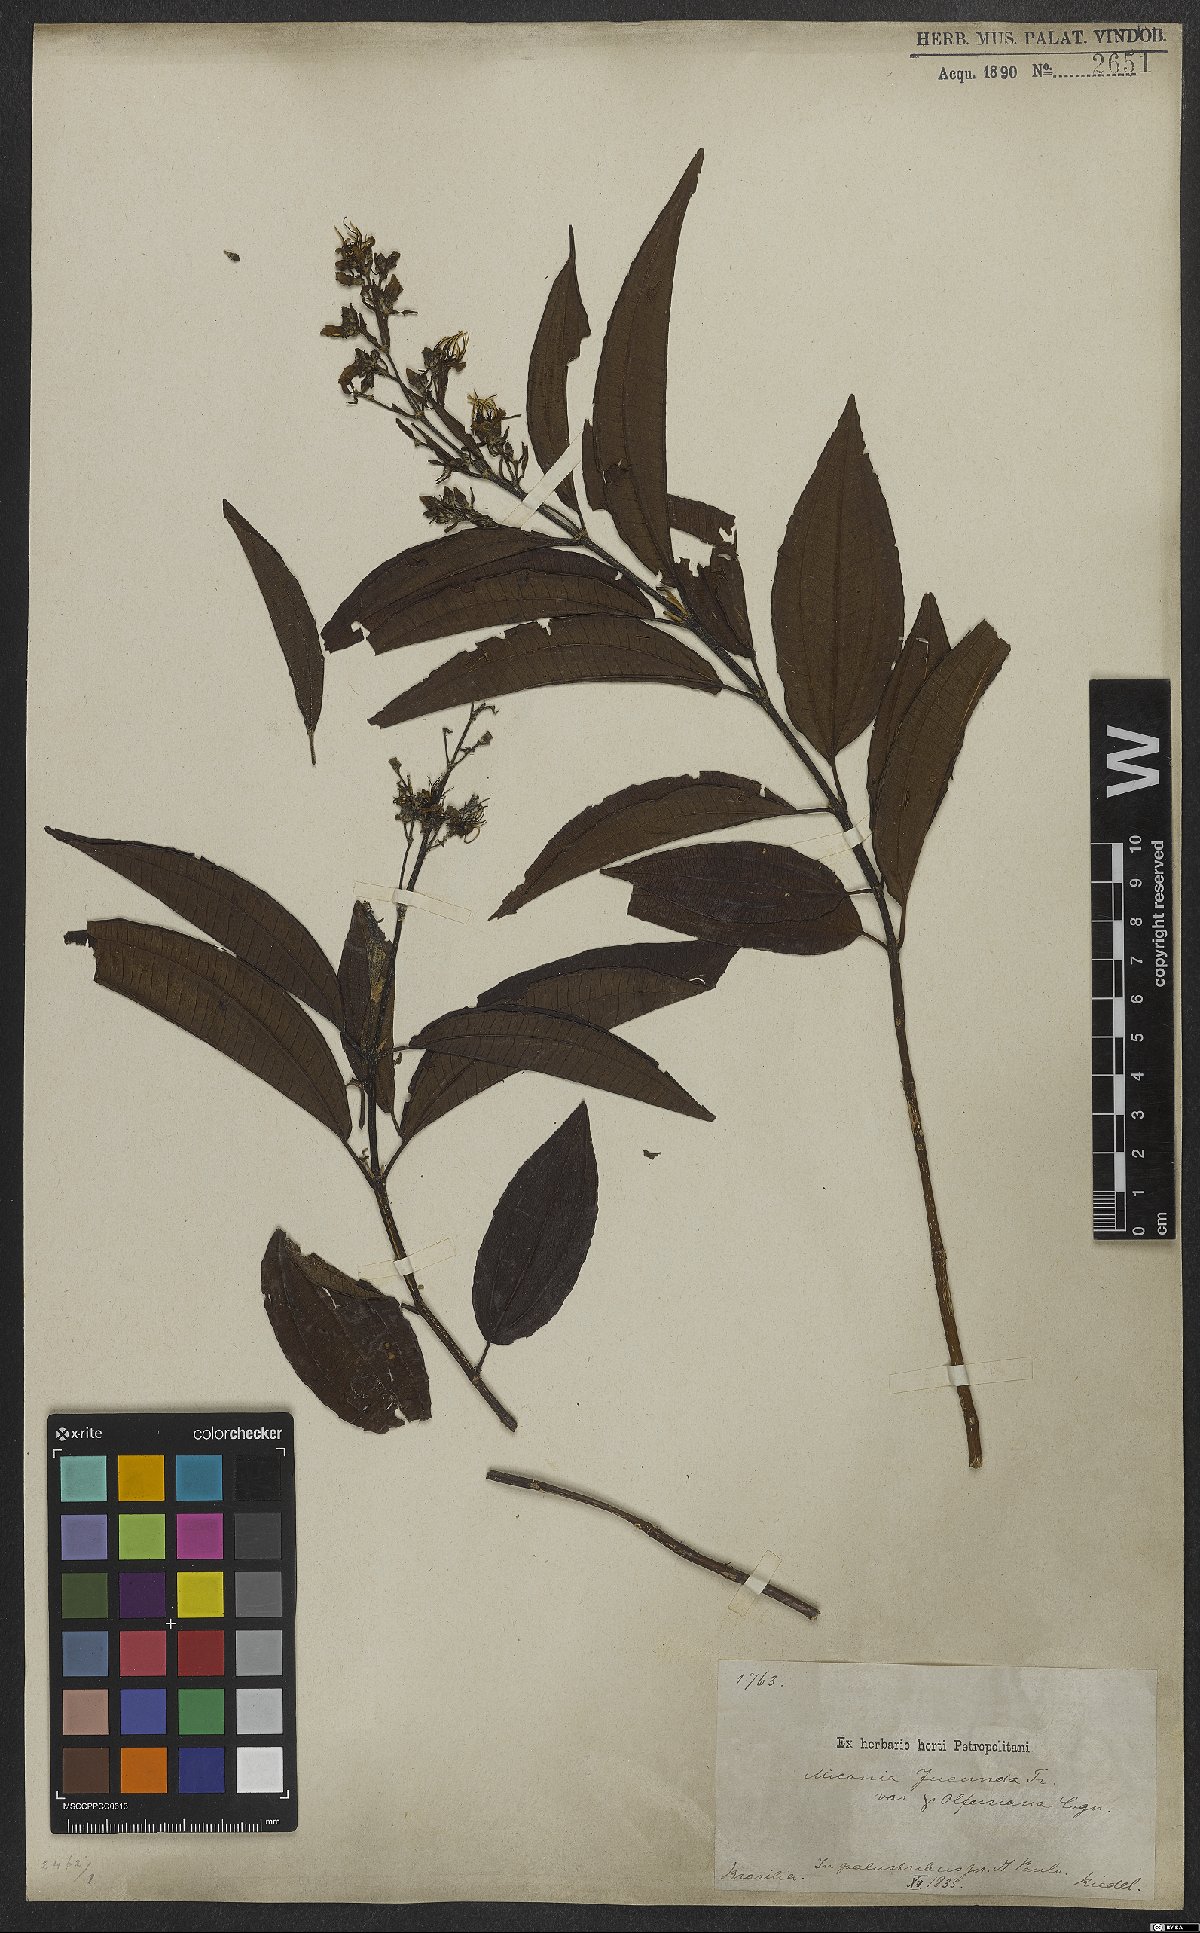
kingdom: Plantae
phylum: Tracheophyta
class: Magnoliopsida
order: Myrtales
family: Melastomataceae
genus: Miconia
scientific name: Miconia jucunda
